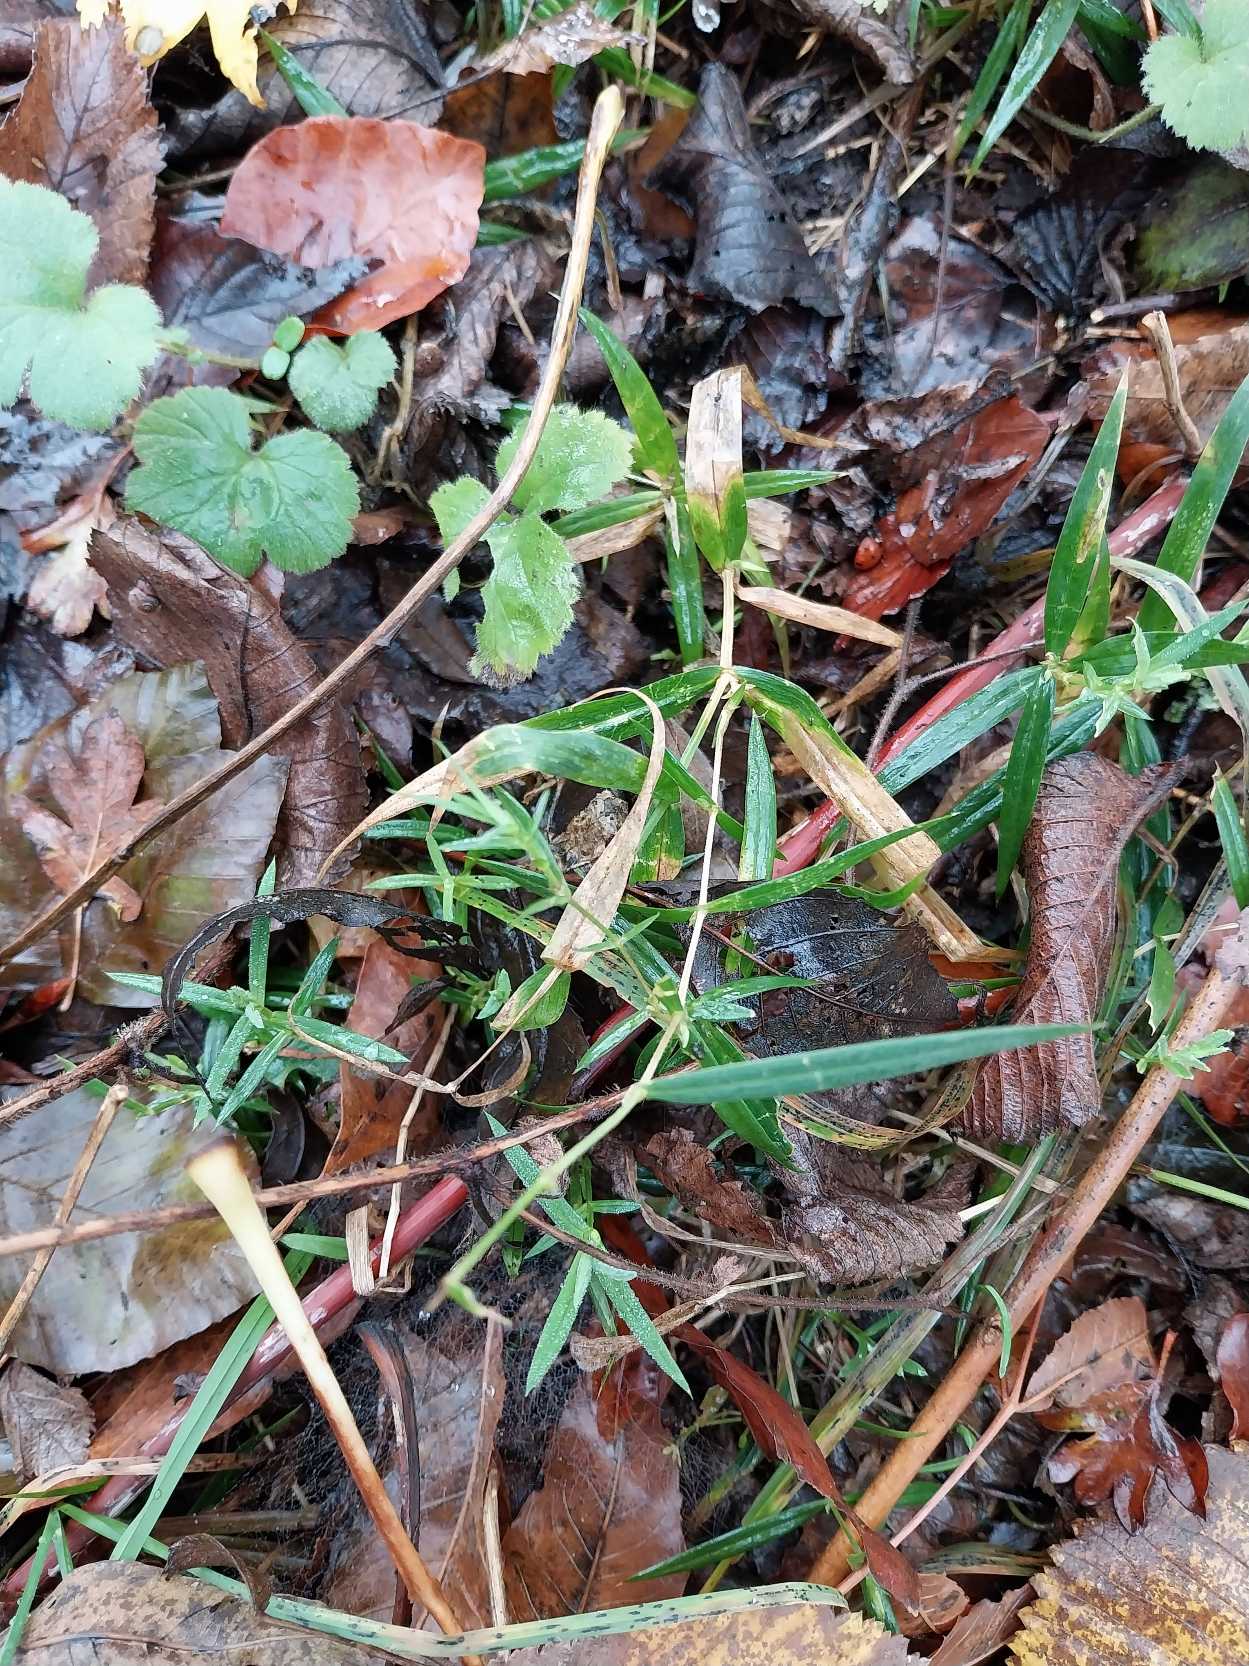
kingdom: Plantae
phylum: Tracheophyta
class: Magnoliopsida
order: Caryophyllales
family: Caryophyllaceae
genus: Rabelera
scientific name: Rabelera holostea
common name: Stor fladstjerne
